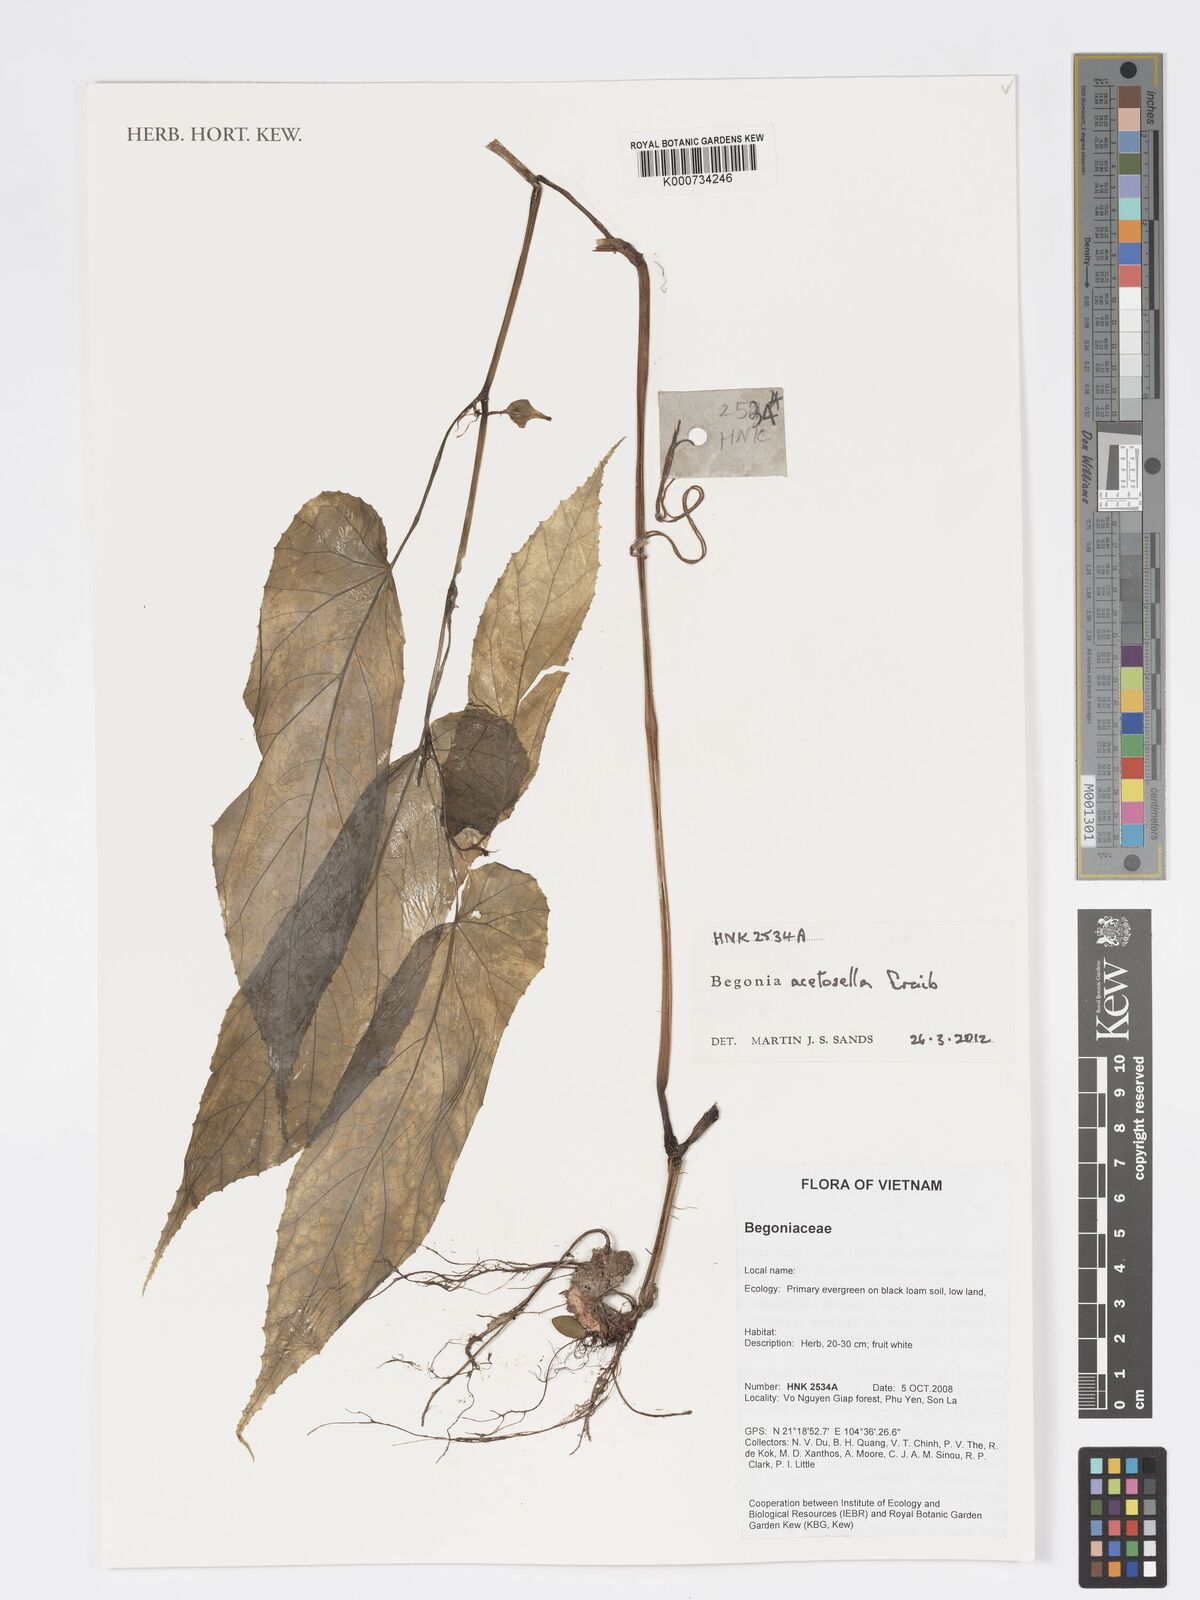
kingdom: Plantae
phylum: Tracheophyta
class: Magnoliopsida
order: Cucurbitales
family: Begoniaceae
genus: Begonia
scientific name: Begonia acetosella
